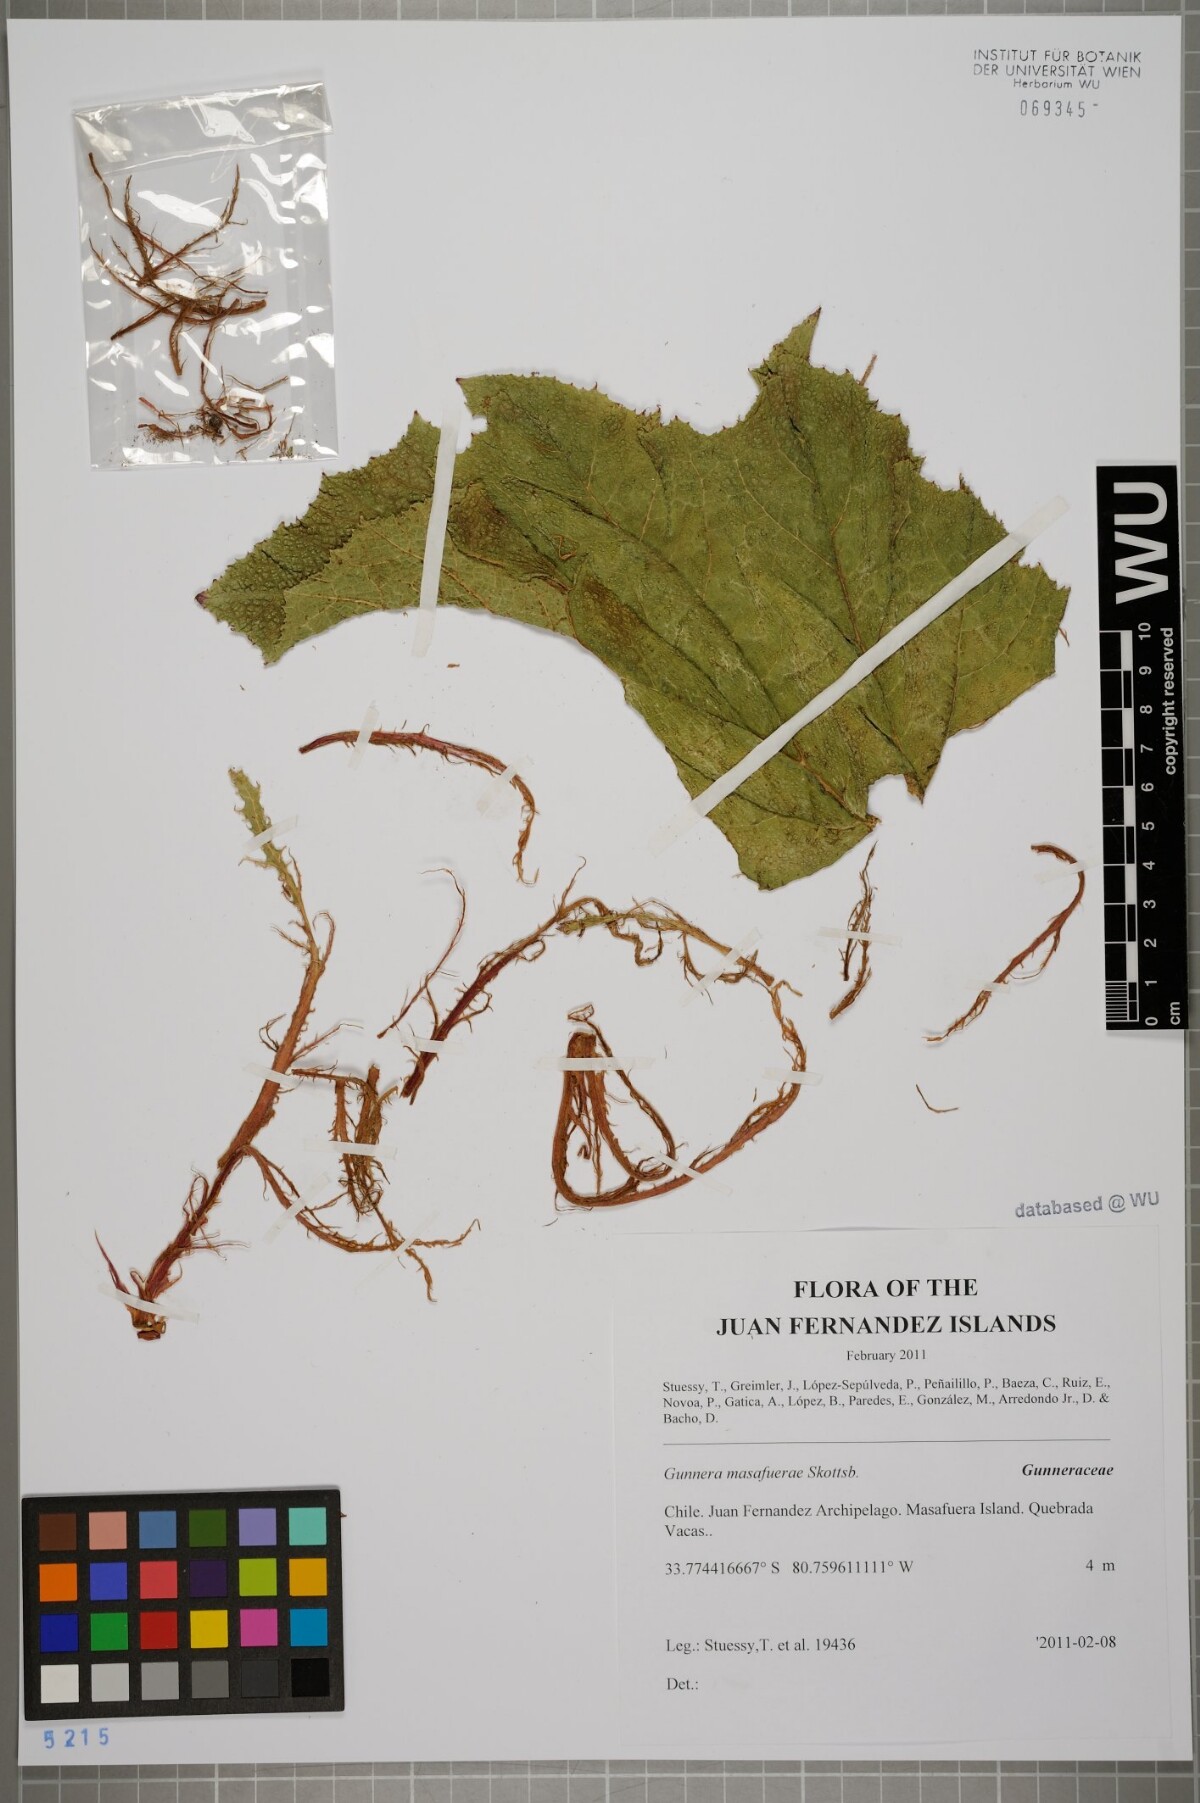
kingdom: Plantae
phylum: Tracheophyta
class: Magnoliopsida
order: Gunnerales
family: Gunneraceae
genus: Gunnera
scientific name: Gunnera masafuerae
